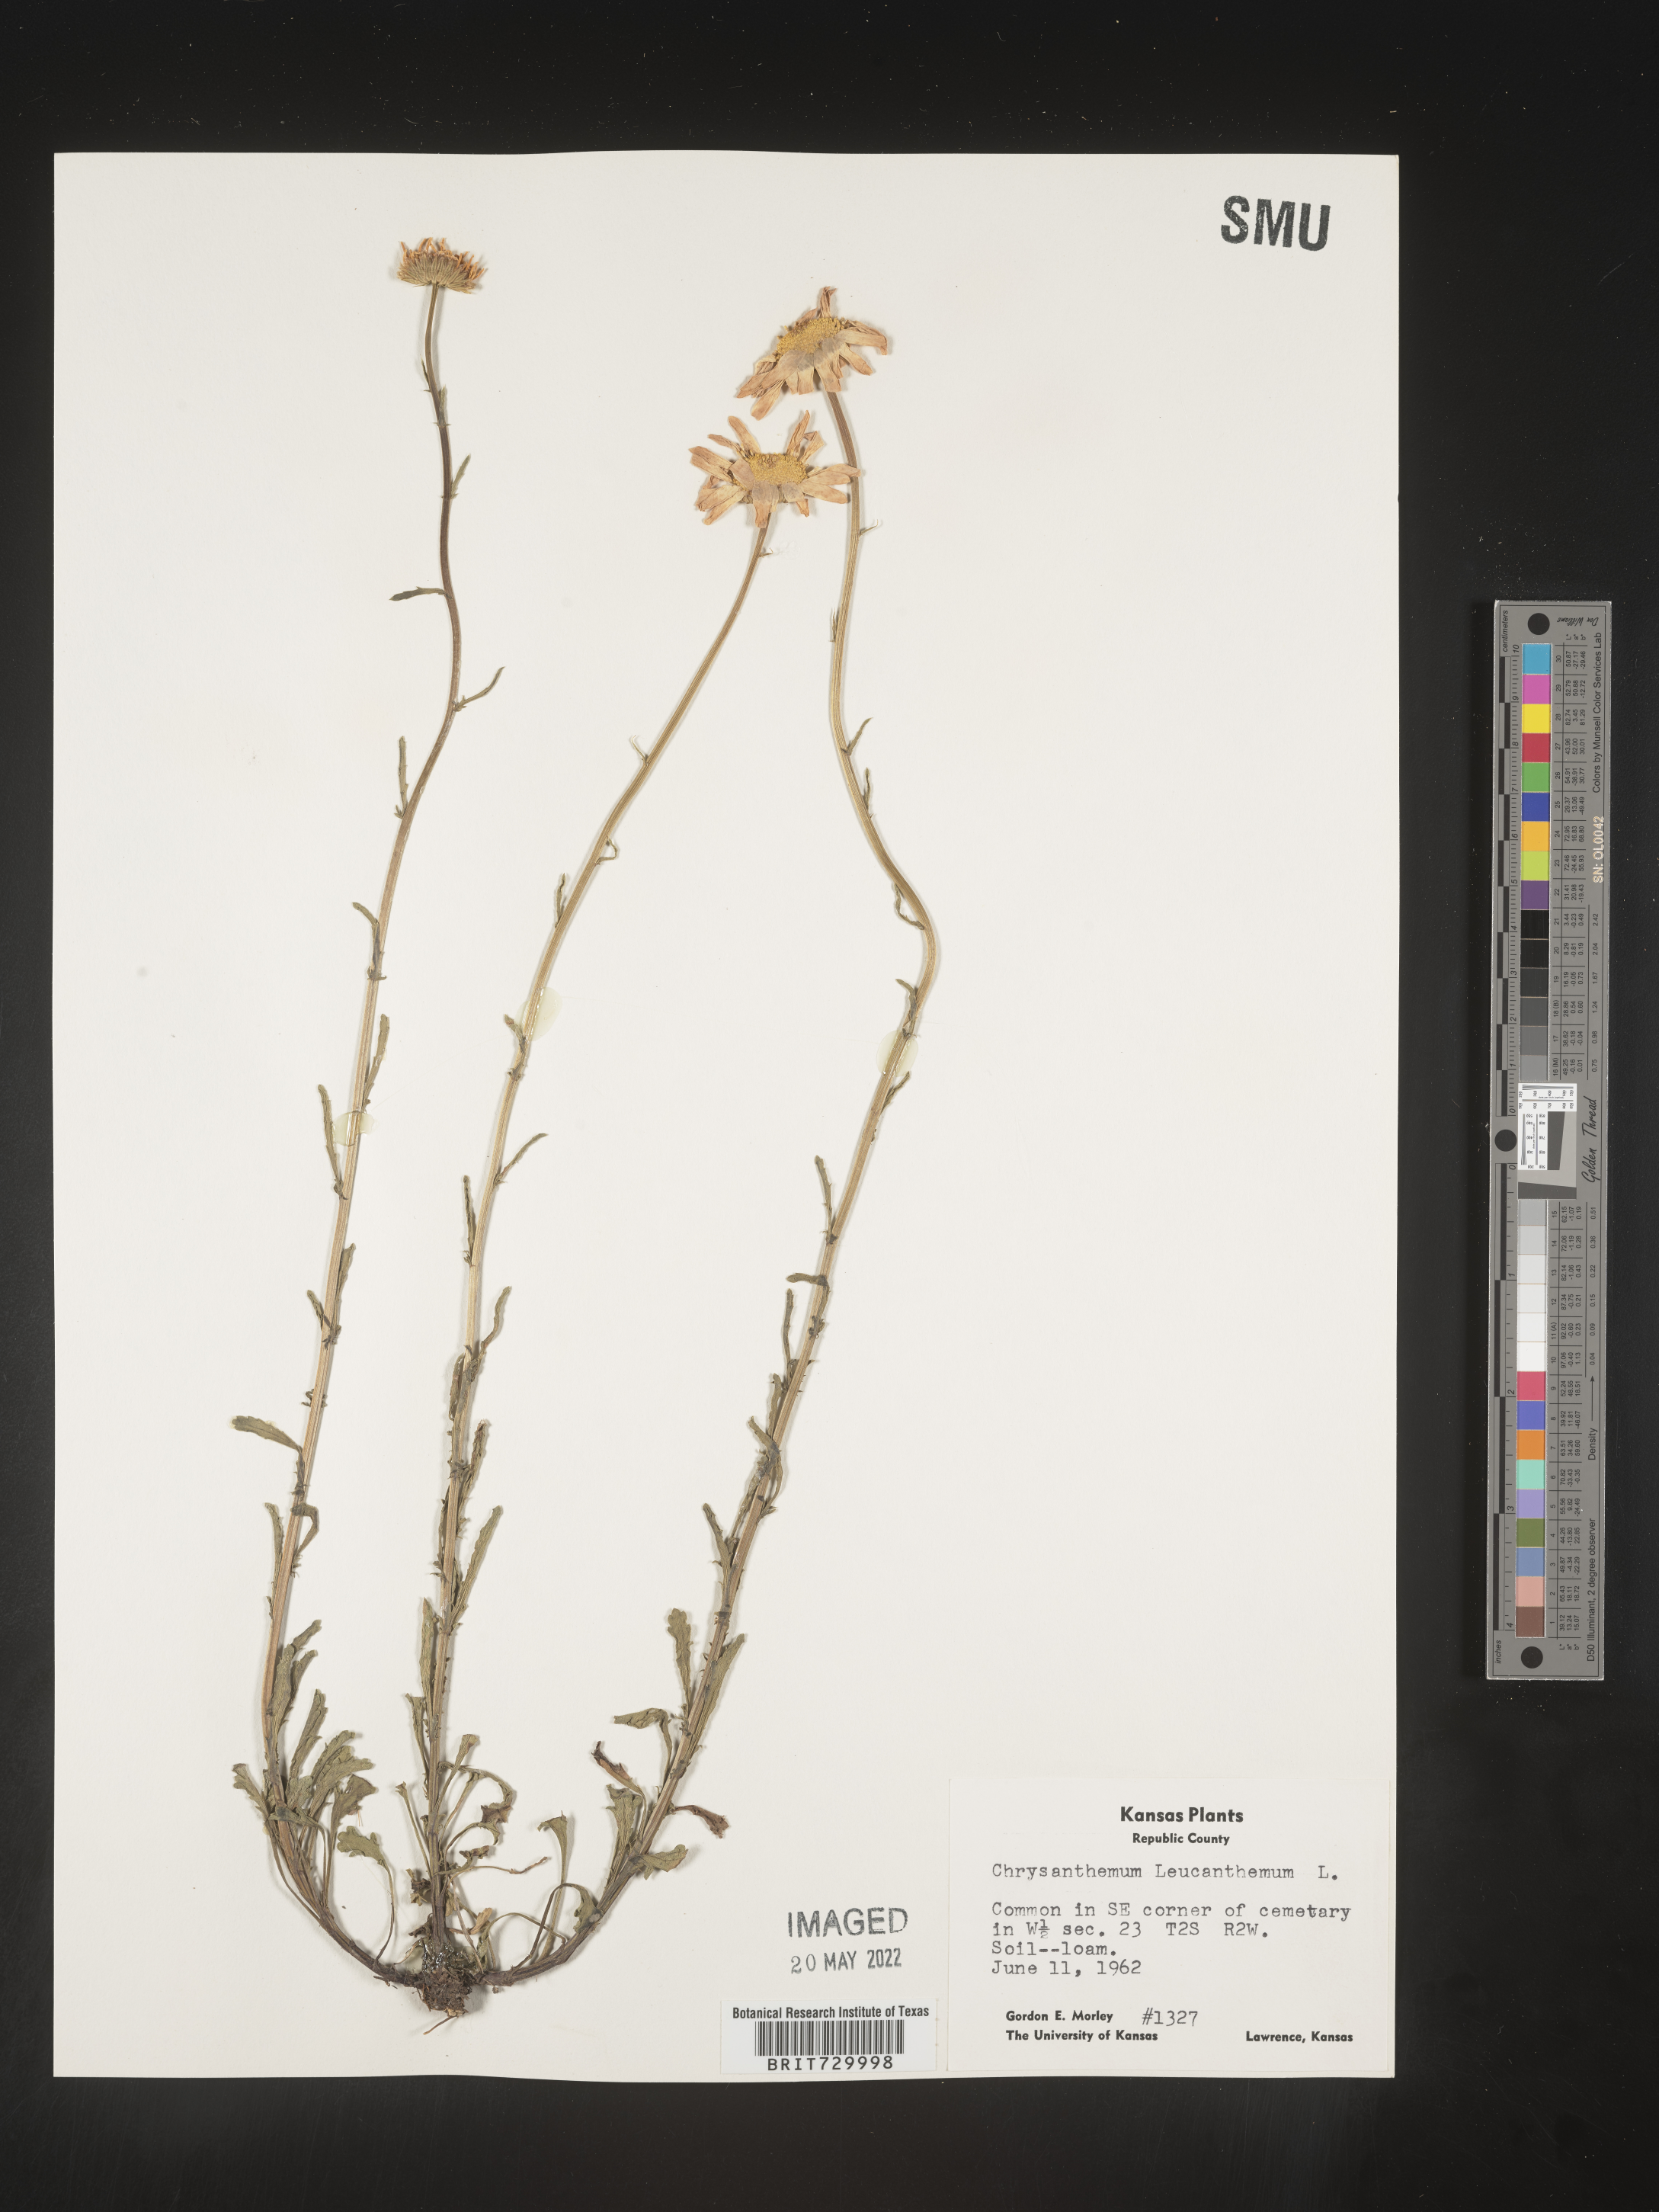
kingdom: Plantae
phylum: Tracheophyta
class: Magnoliopsida
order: Asterales
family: Asteraceae
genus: Leucanthemum
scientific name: Leucanthemum vulgare
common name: Oxeye daisy
